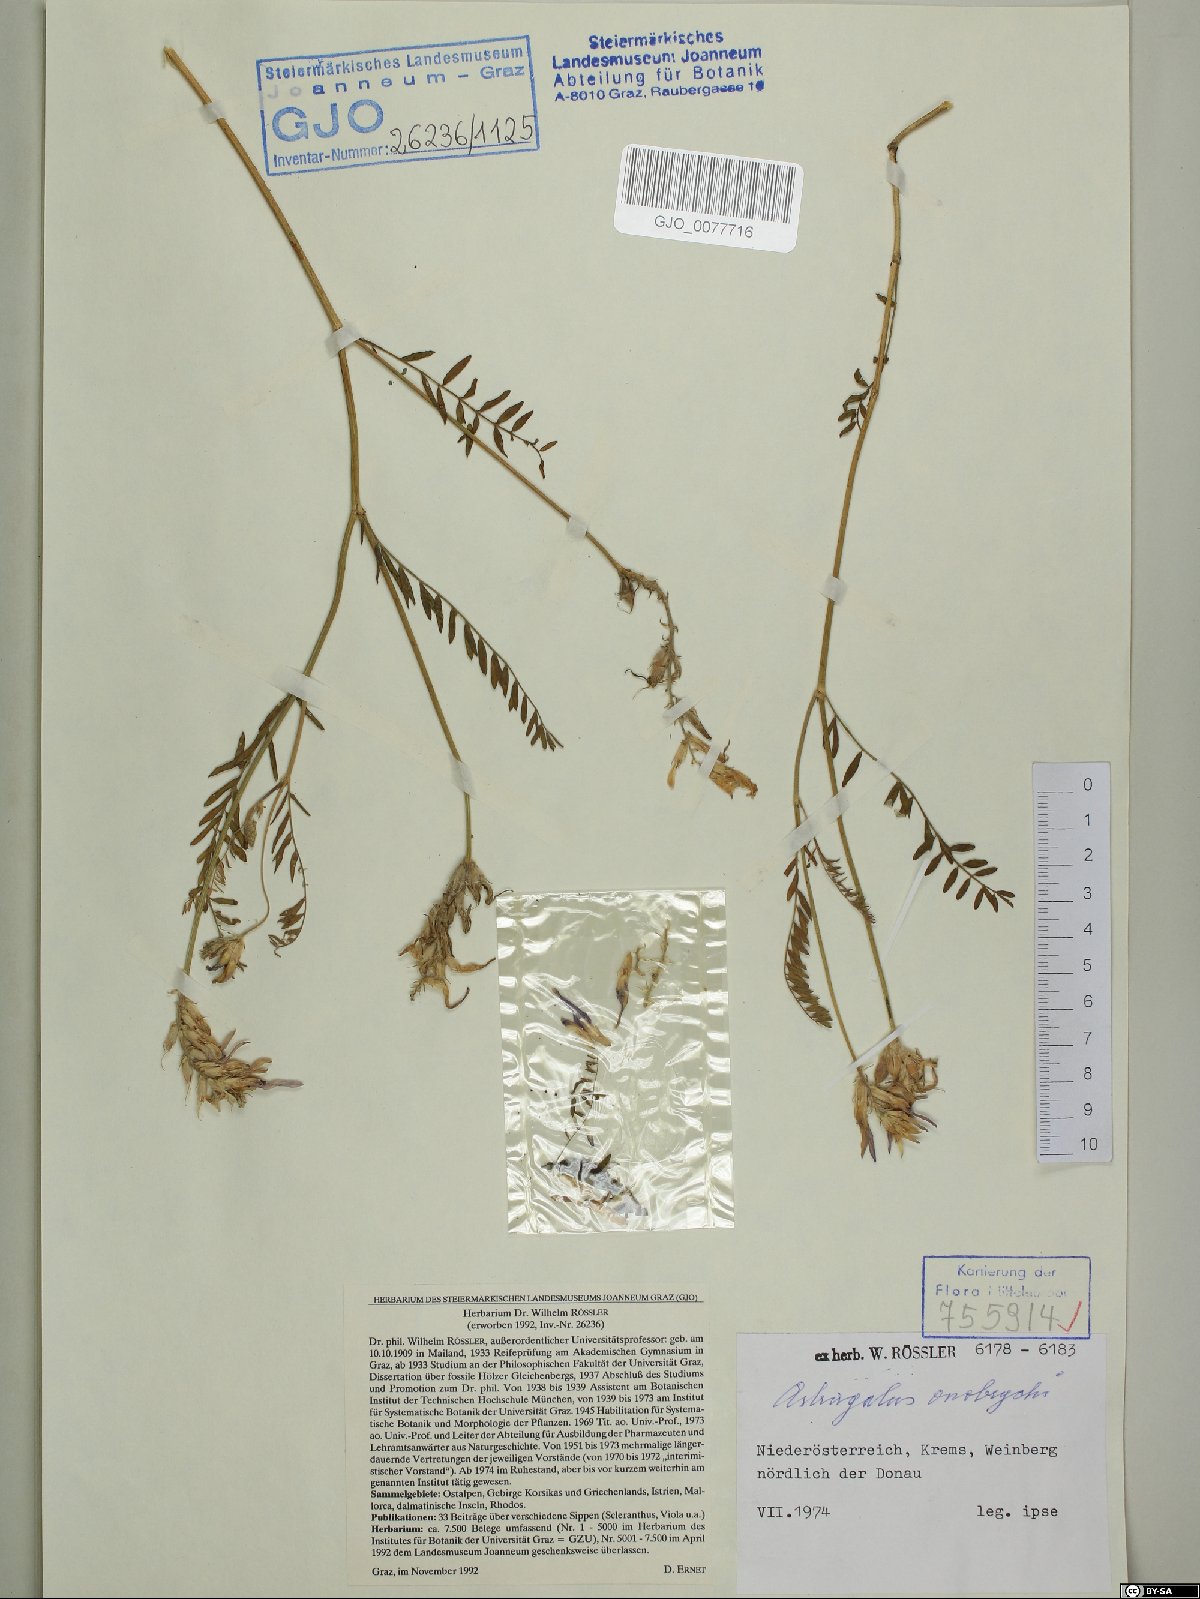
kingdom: Plantae
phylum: Tracheophyta
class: Magnoliopsida
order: Fabales
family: Fabaceae
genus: Astragalus
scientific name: Astragalus onobrychis
